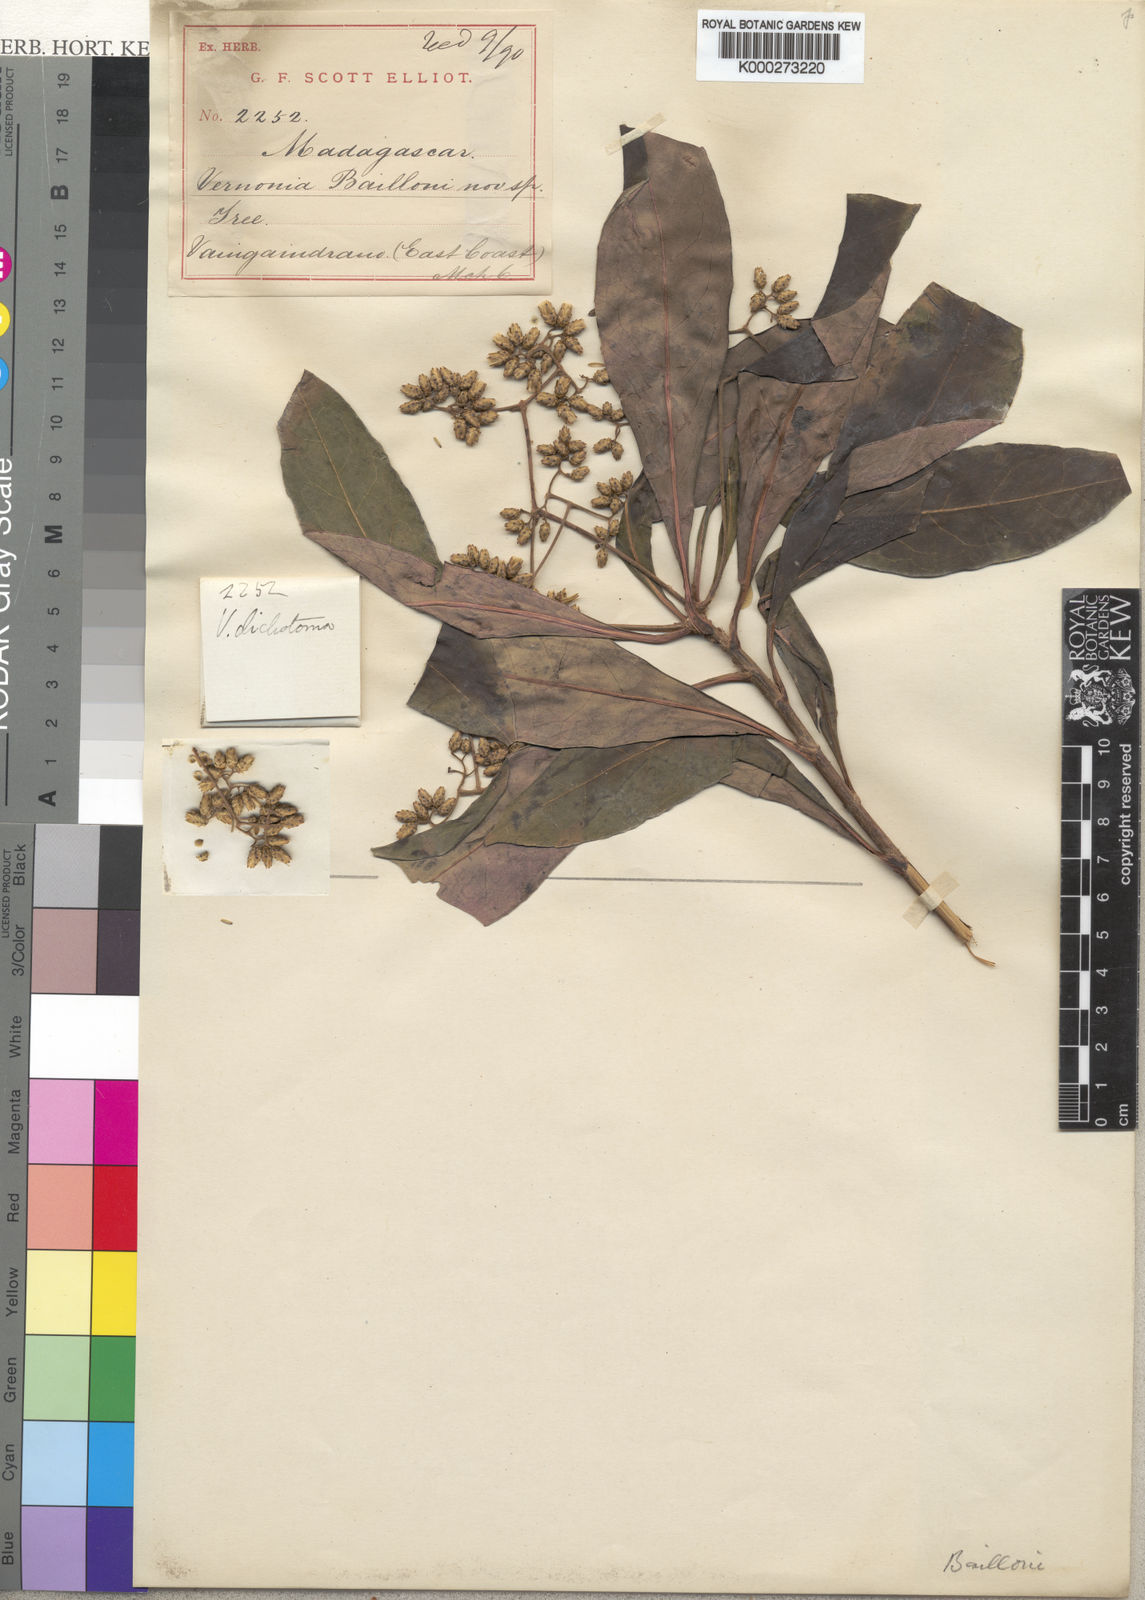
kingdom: Plantae
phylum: Tracheophyta
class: Magnoliopsida
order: Asterales
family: Asteraceae
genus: Vernonia
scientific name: Vernonia baillonii
